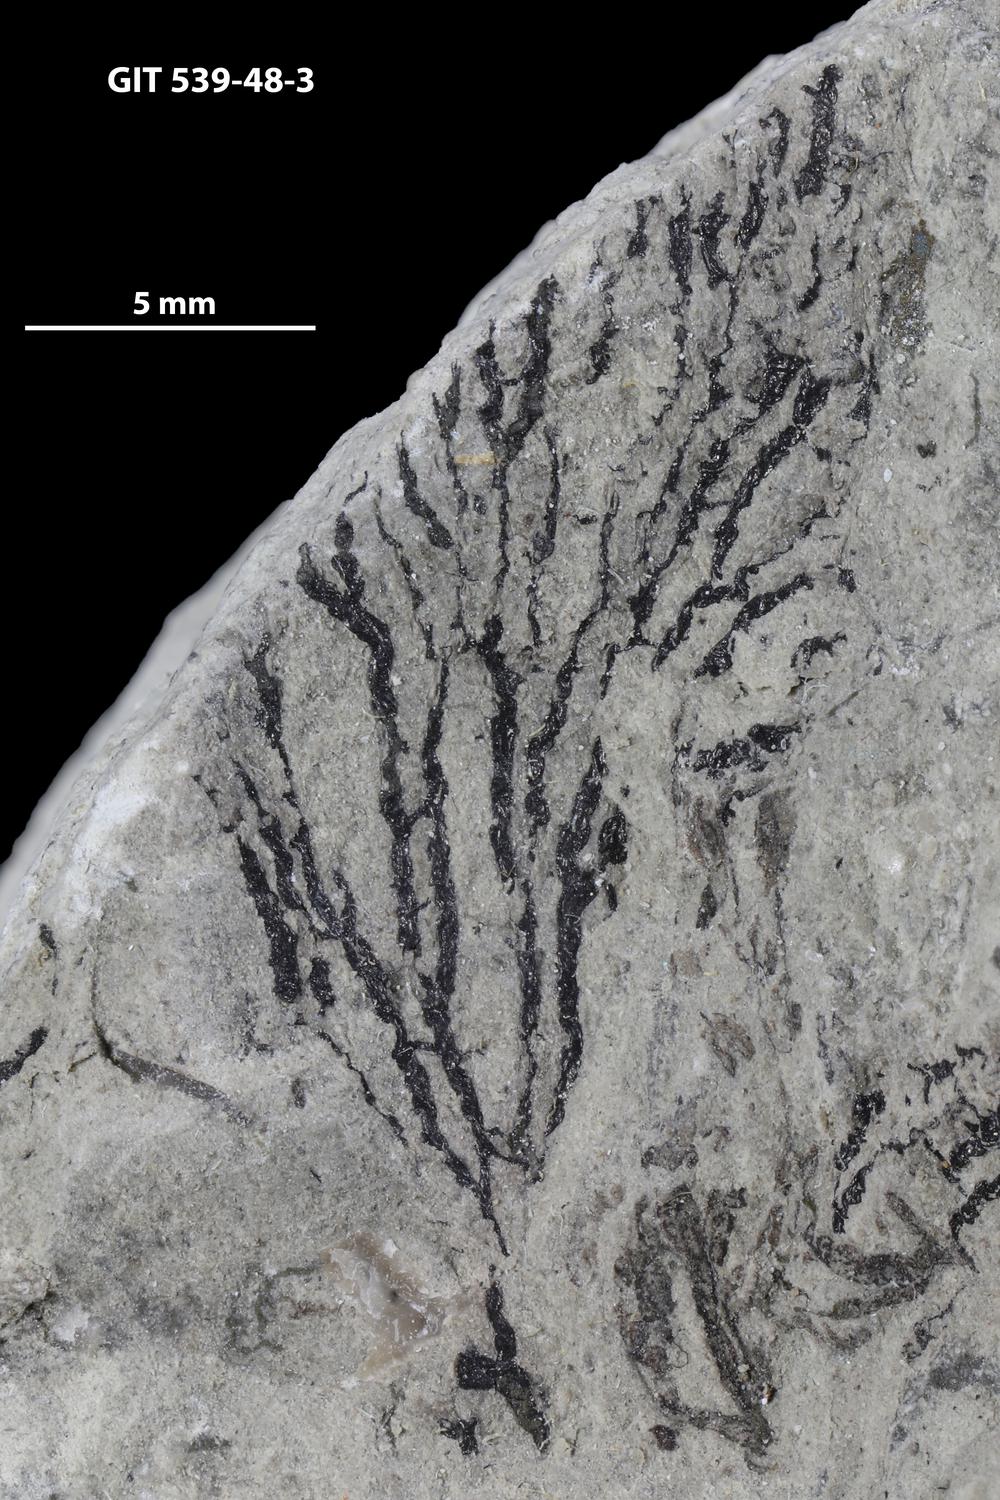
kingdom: Animalia
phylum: Hemichordata
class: Pterobranchia
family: Dendrograptidae
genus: Dendrograptus
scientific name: Dendrograptus
